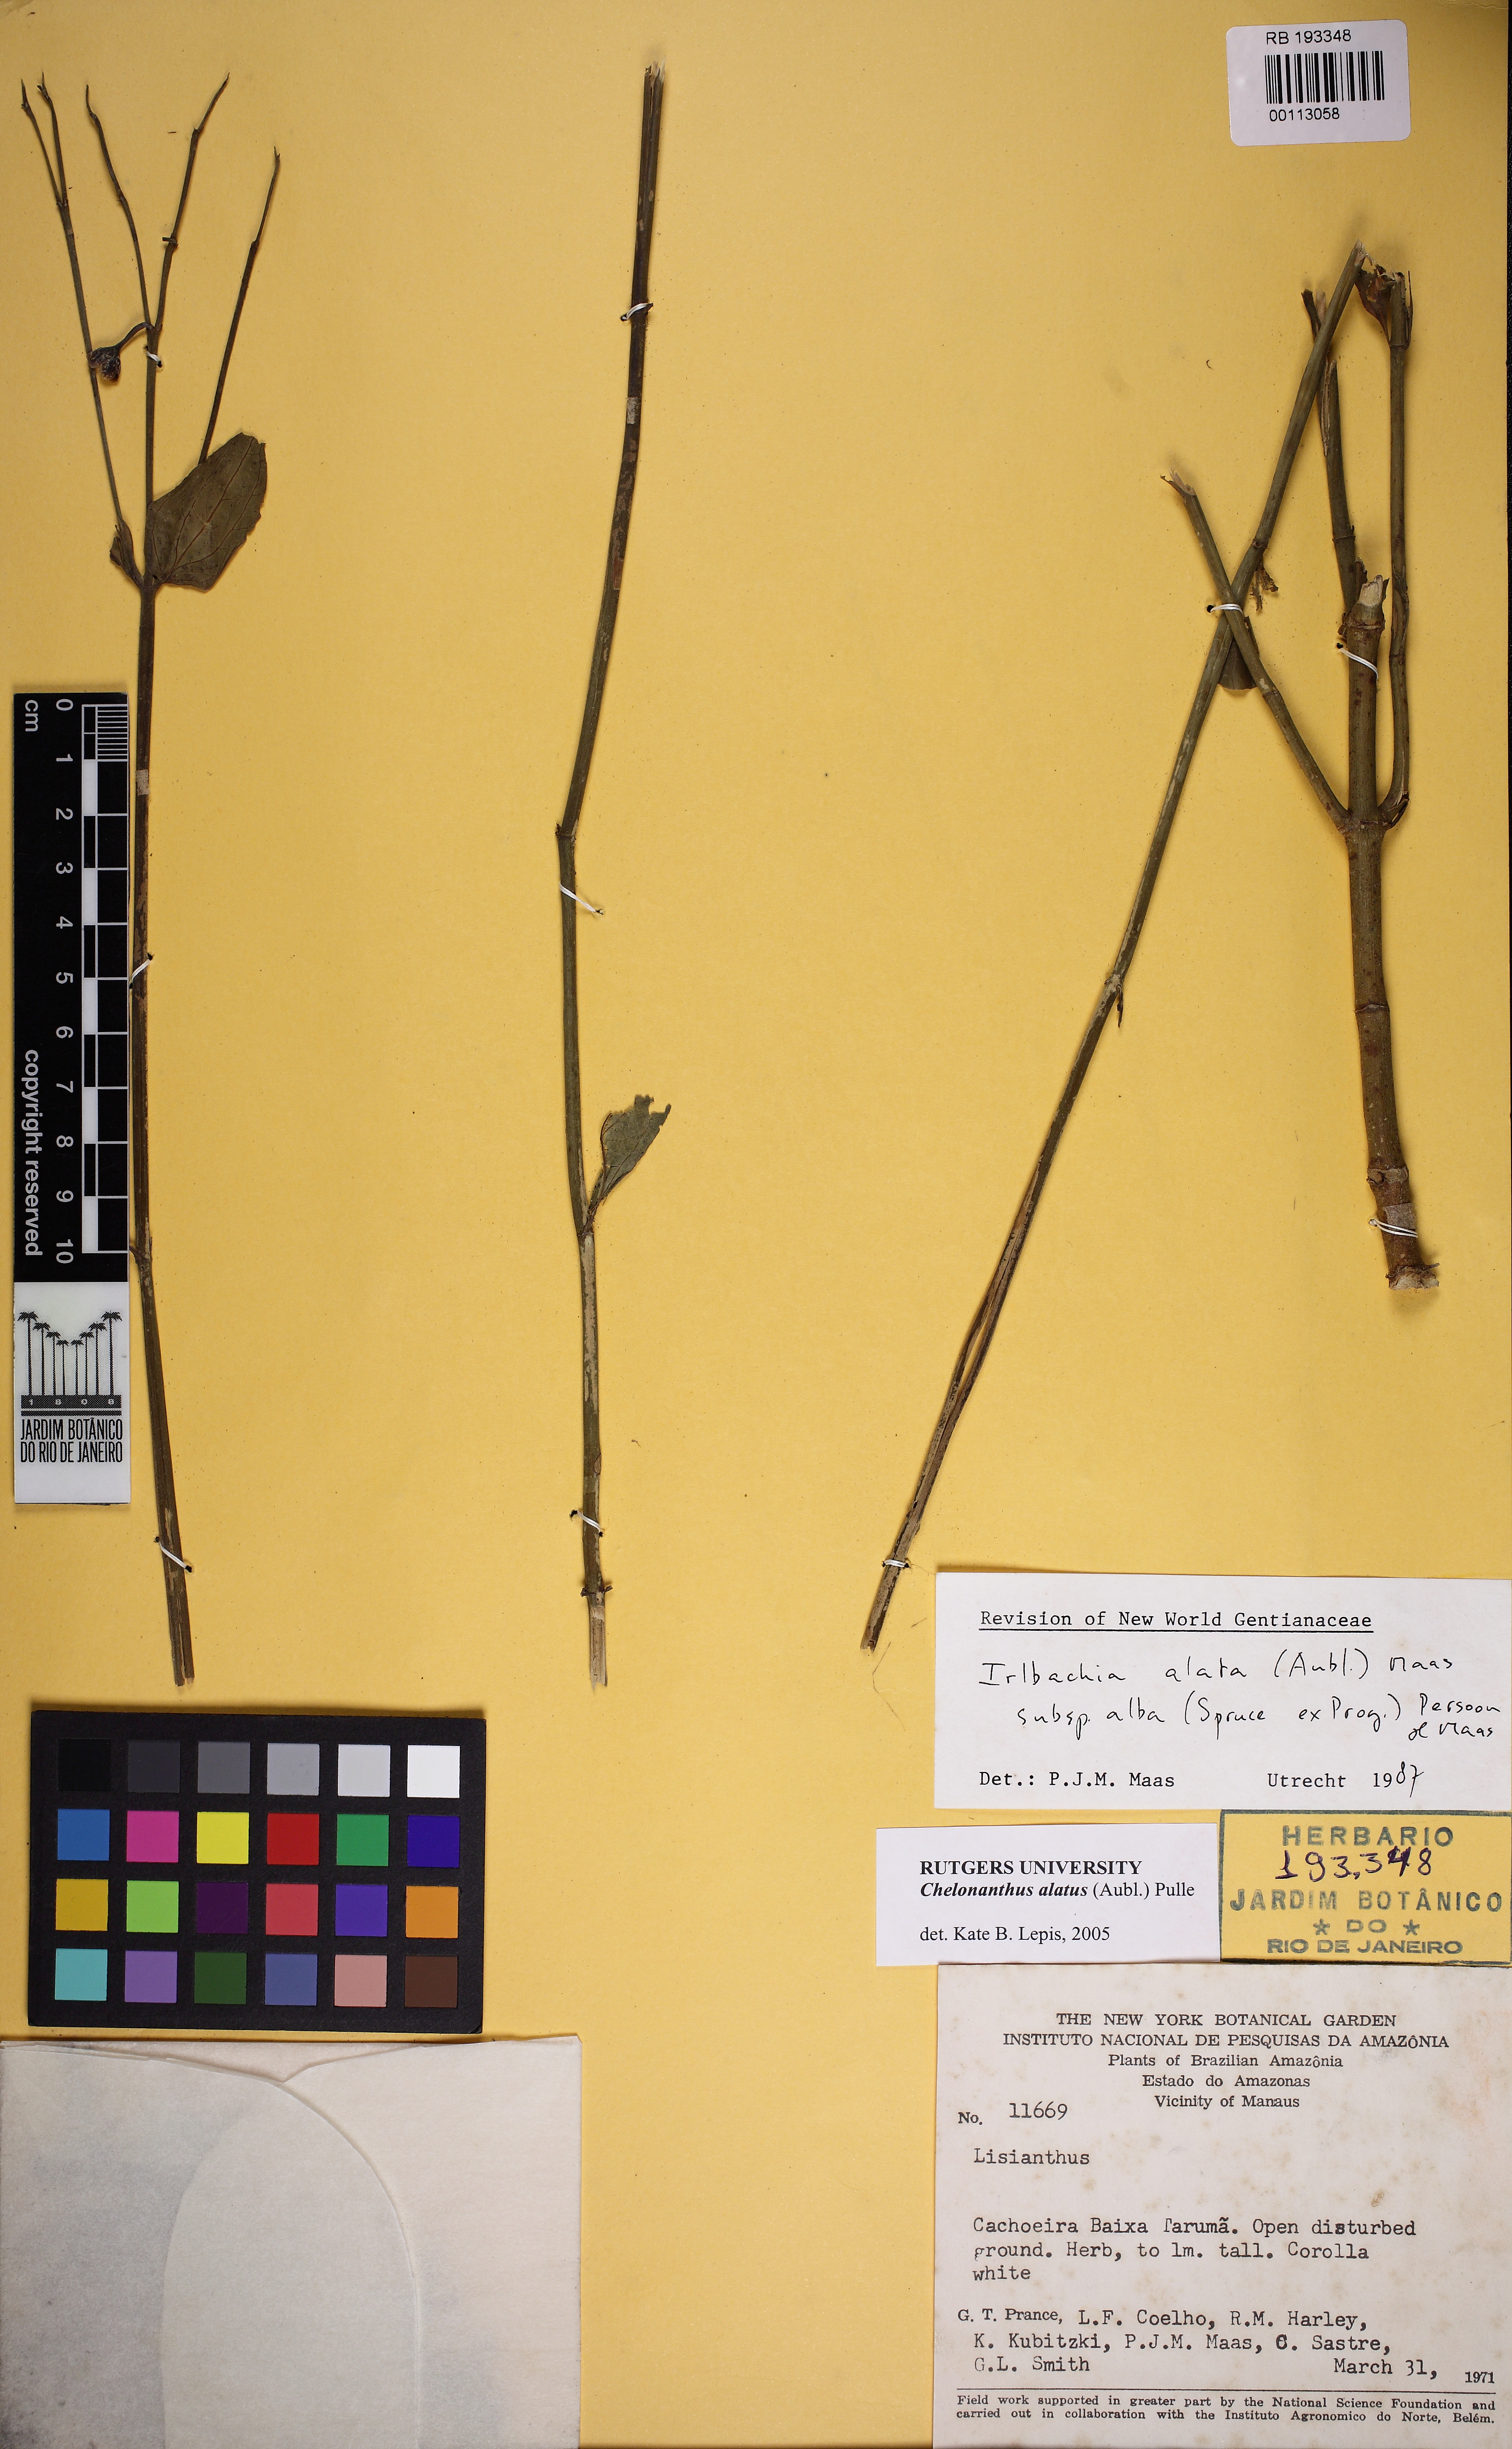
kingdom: Plantae
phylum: Tracheophyta
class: Magnoliopsida
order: Gentianales
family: Gentianaceae
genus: Chelonanthus
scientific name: Chelonanthus alatus
